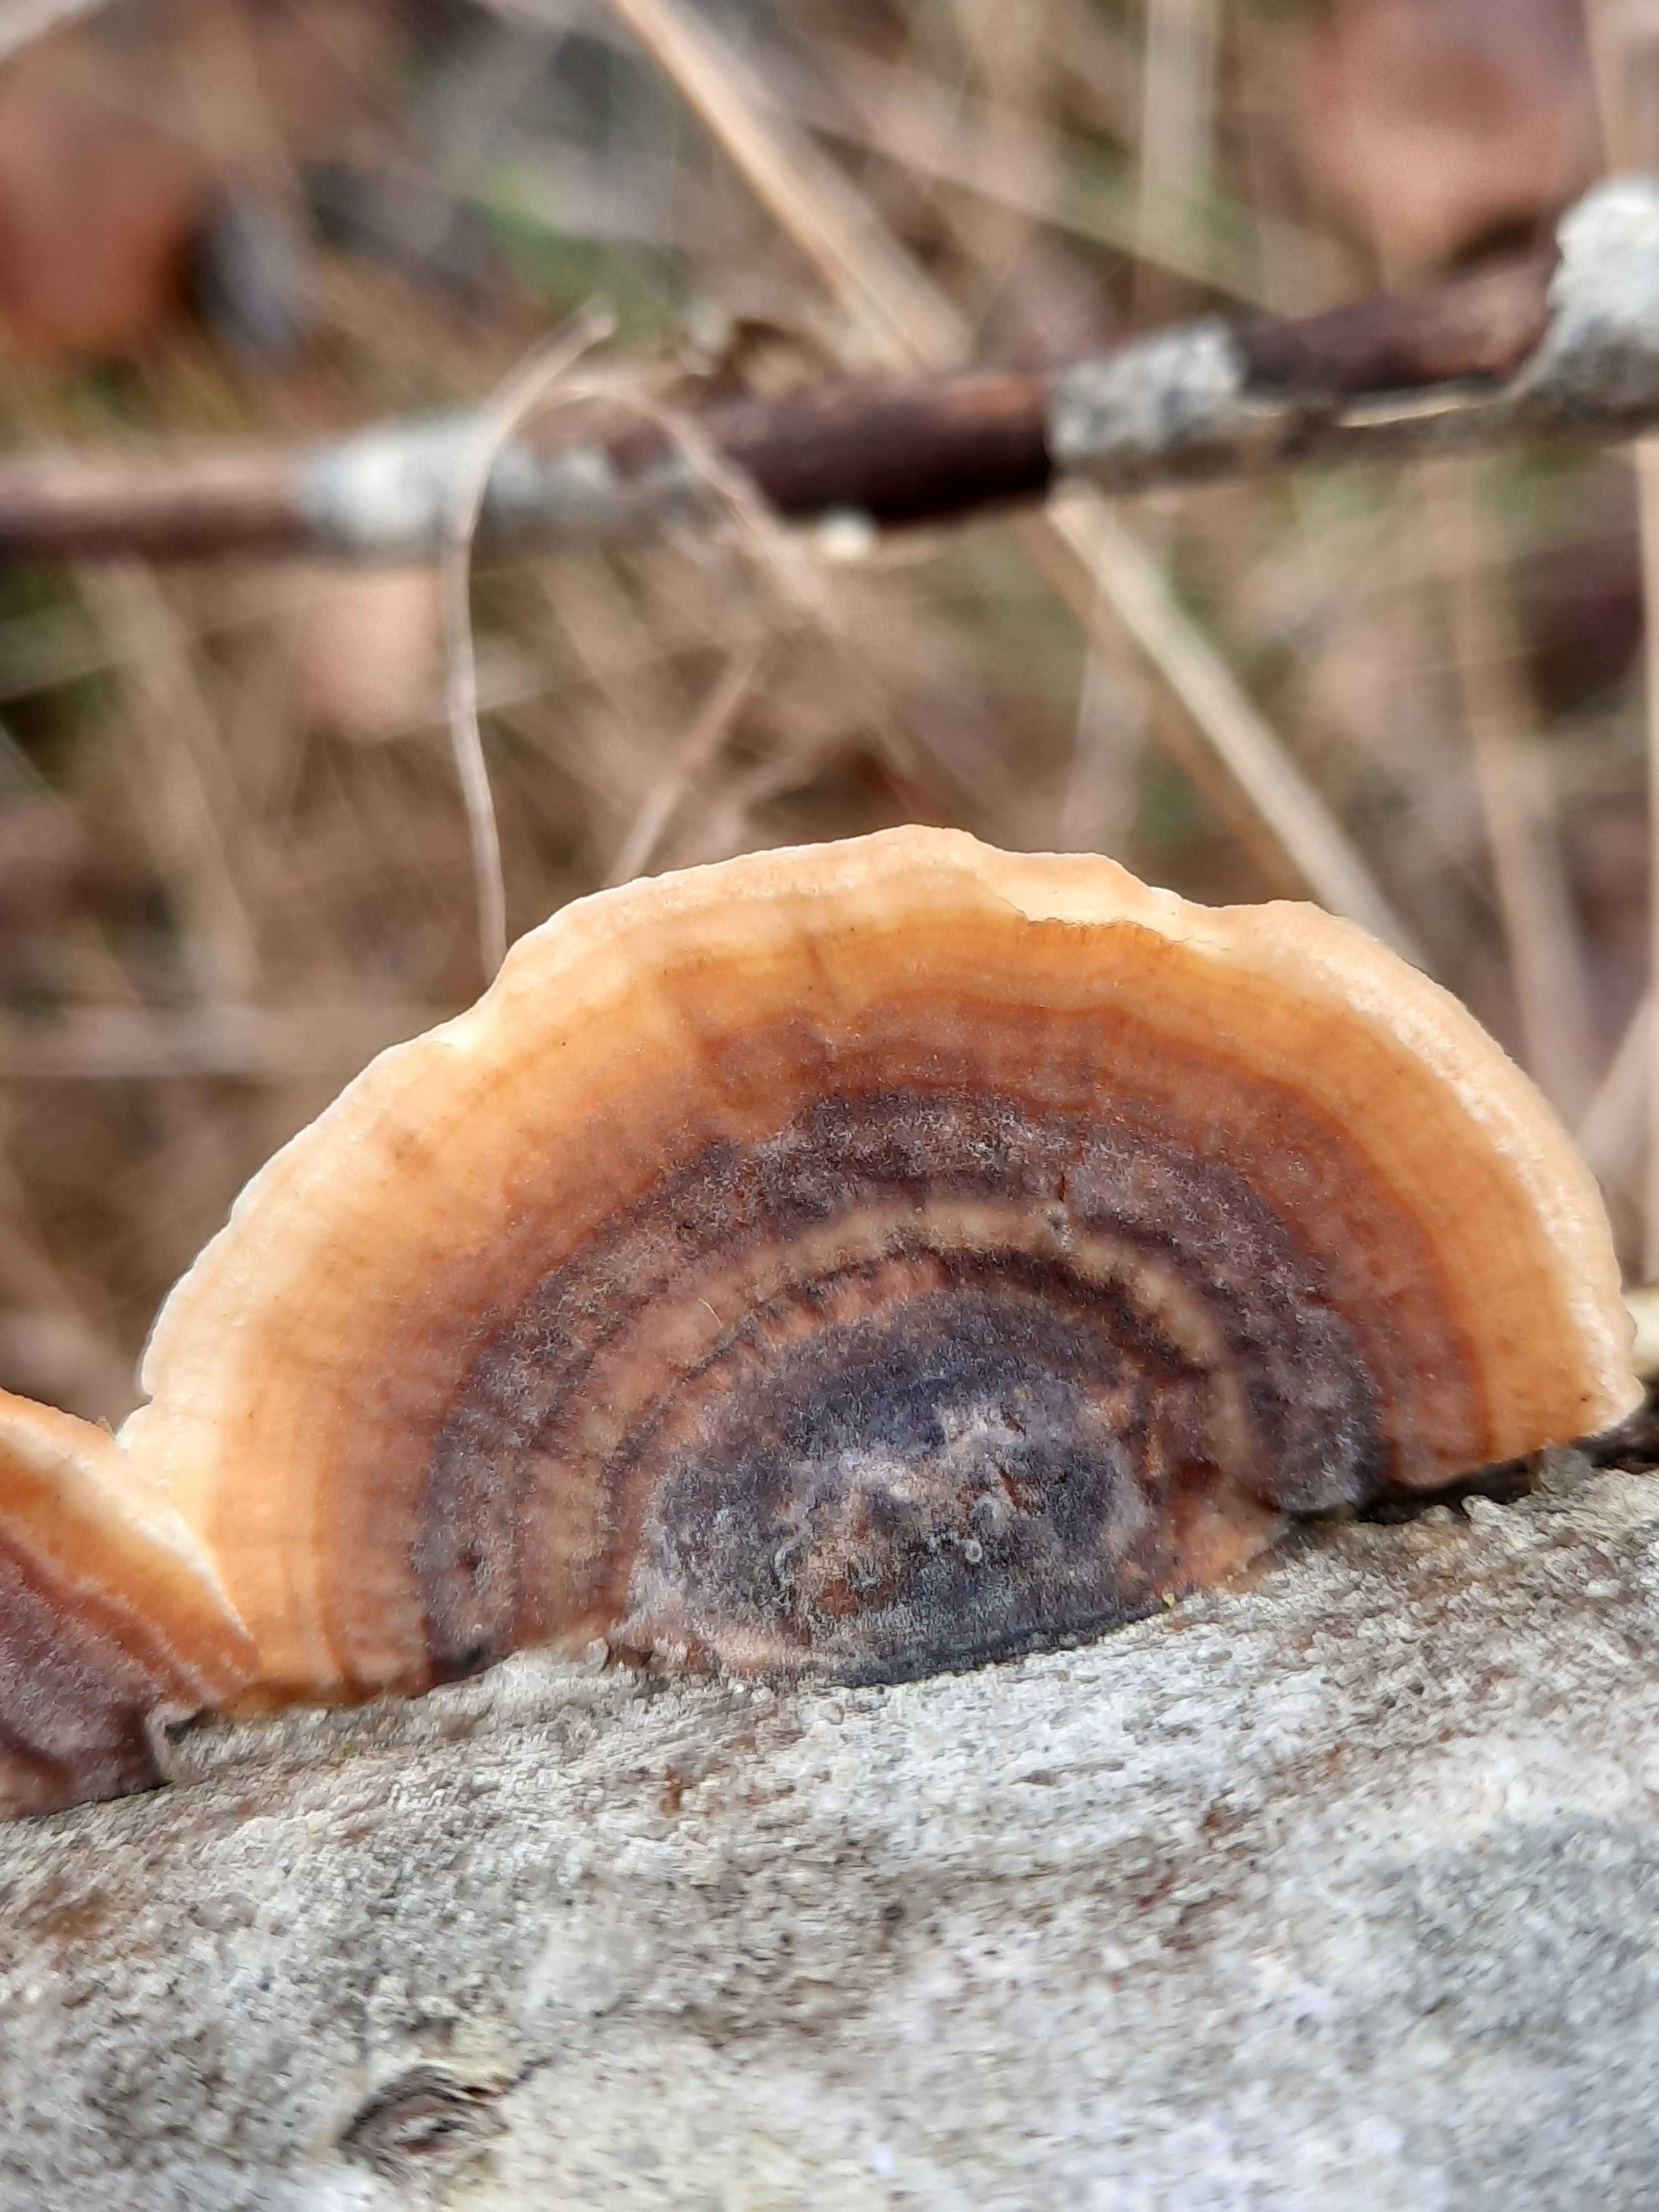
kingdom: Fungi
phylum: Basidiomycota
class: Agaricomycetes
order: Polyporales
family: Polyporaceae
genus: Trametes
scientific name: Trametes versicolor
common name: broget læderporesvamp
